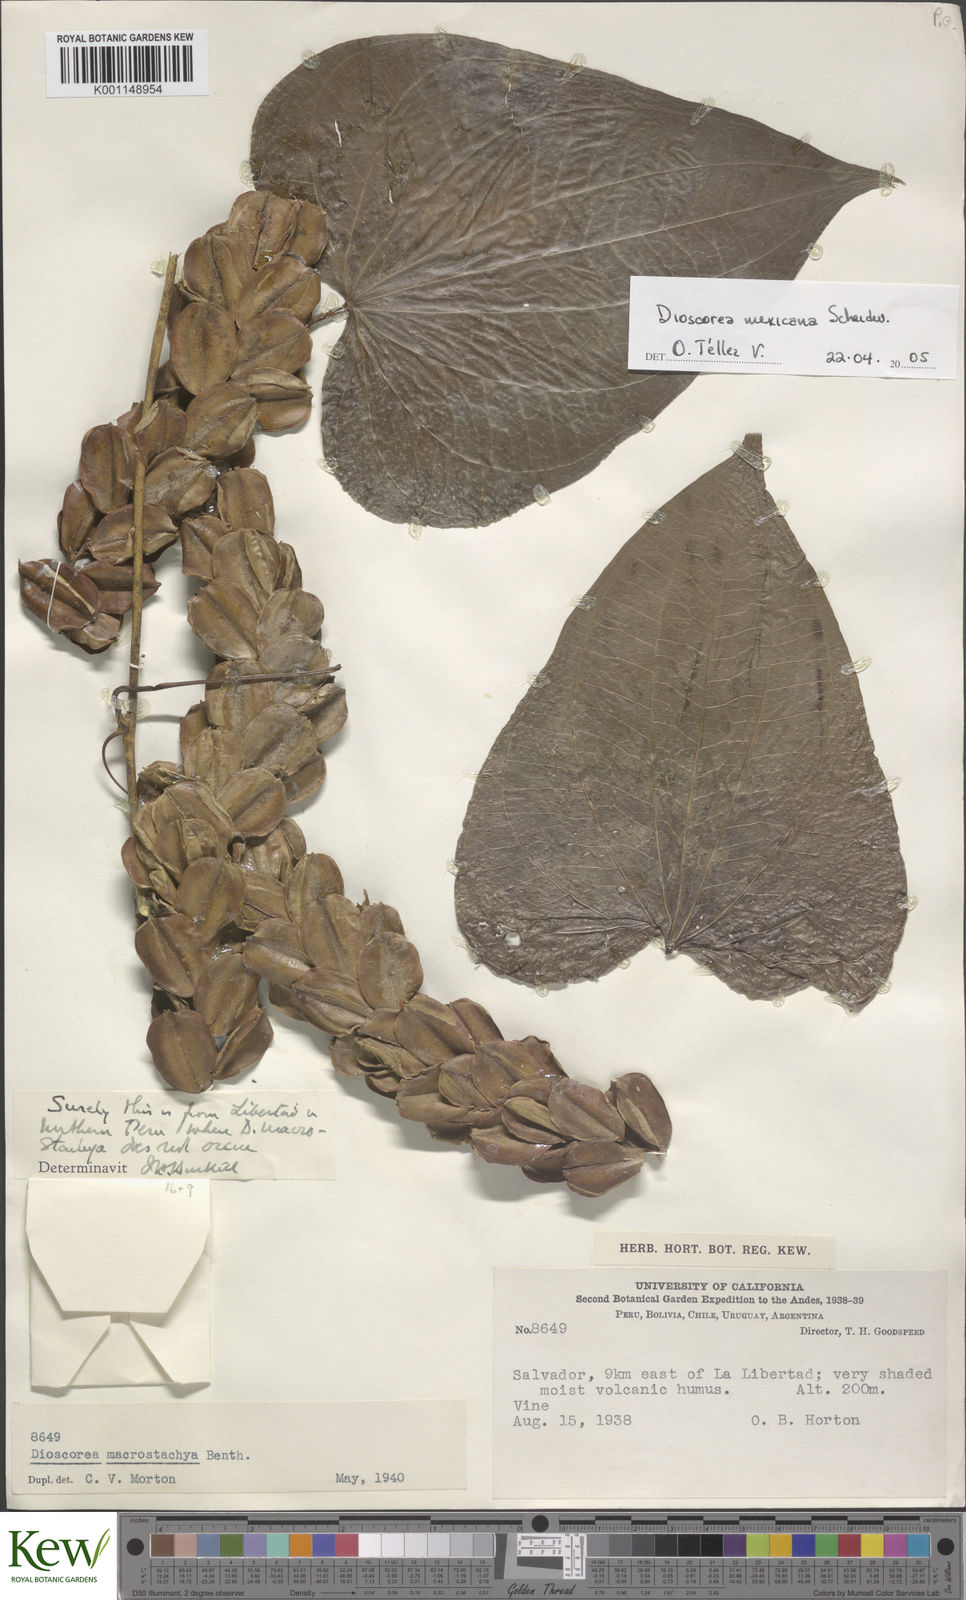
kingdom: Plantae
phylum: Tracheophyta
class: Liliopsida
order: Dioscoreales
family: Dioscoreaceae
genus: Dioscorea
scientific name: Dioscorea mexicana
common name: Mexican yam
